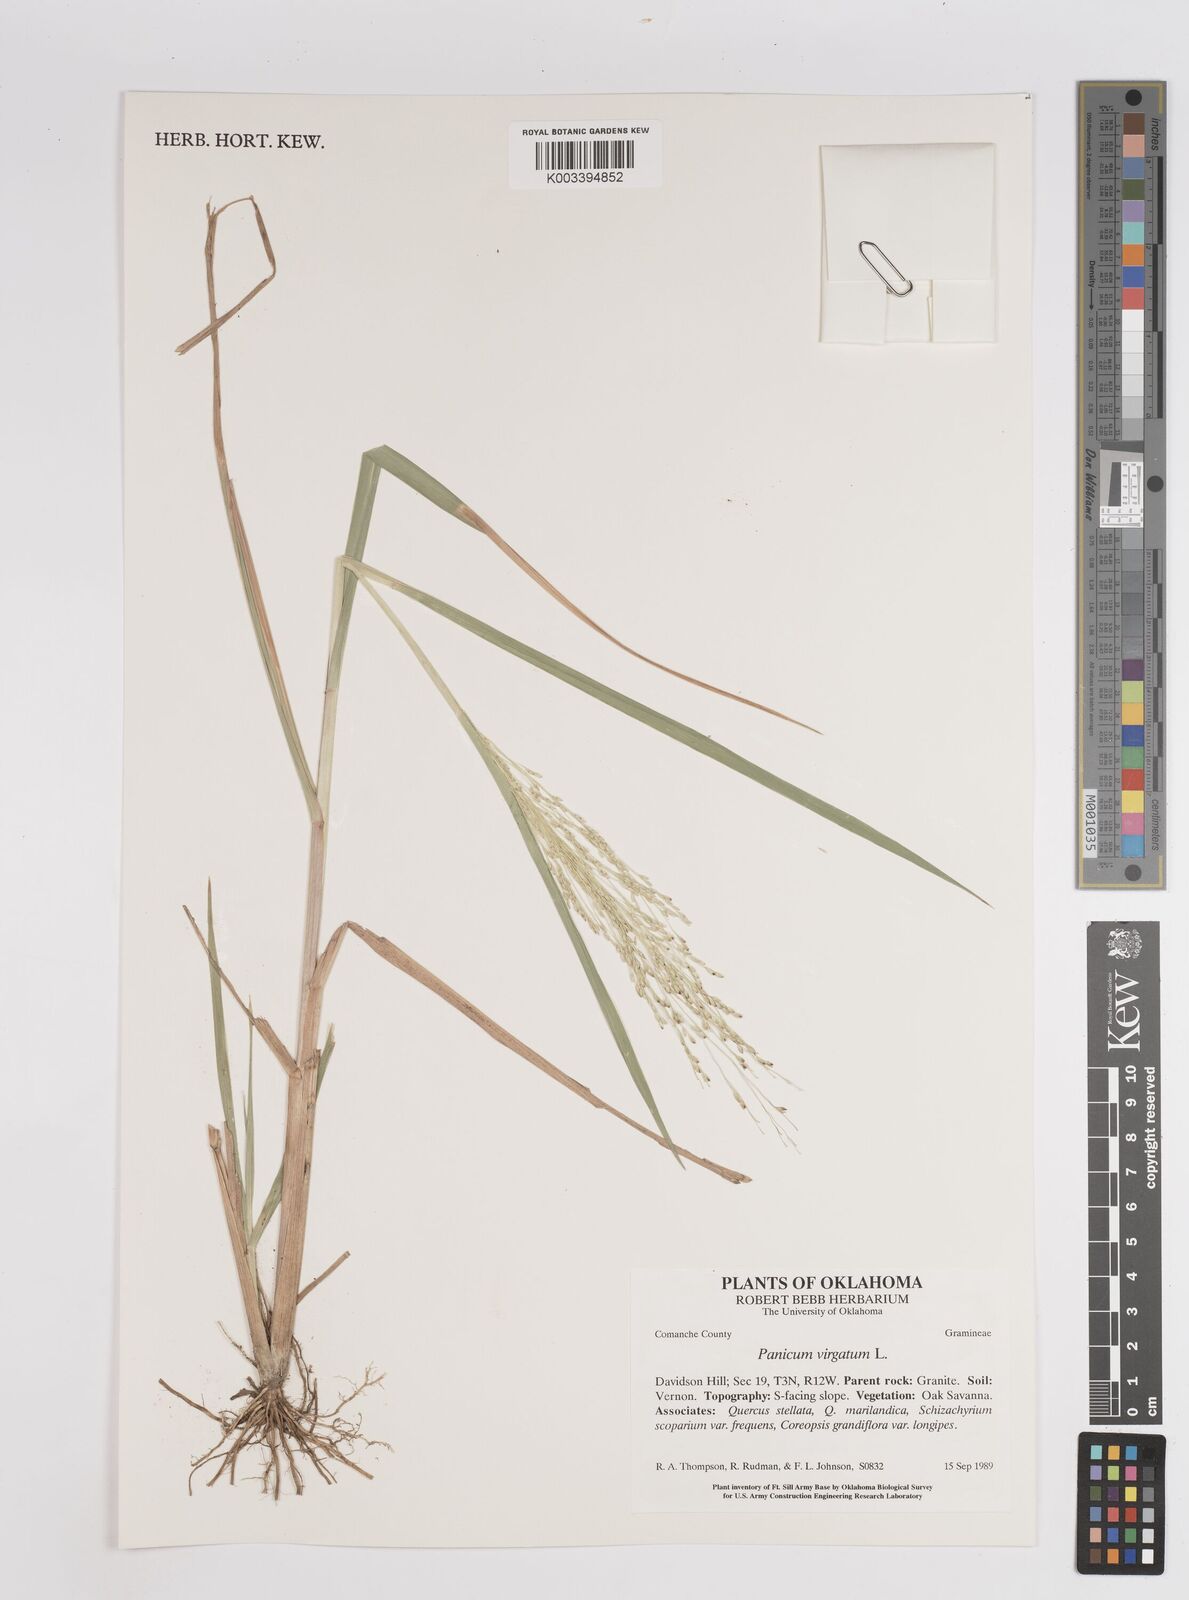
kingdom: Plantae
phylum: Tracheophyta
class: Liliopsida
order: Poales
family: Poaceae
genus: Panicum
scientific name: Panicum virgatum
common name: Switchgrass
